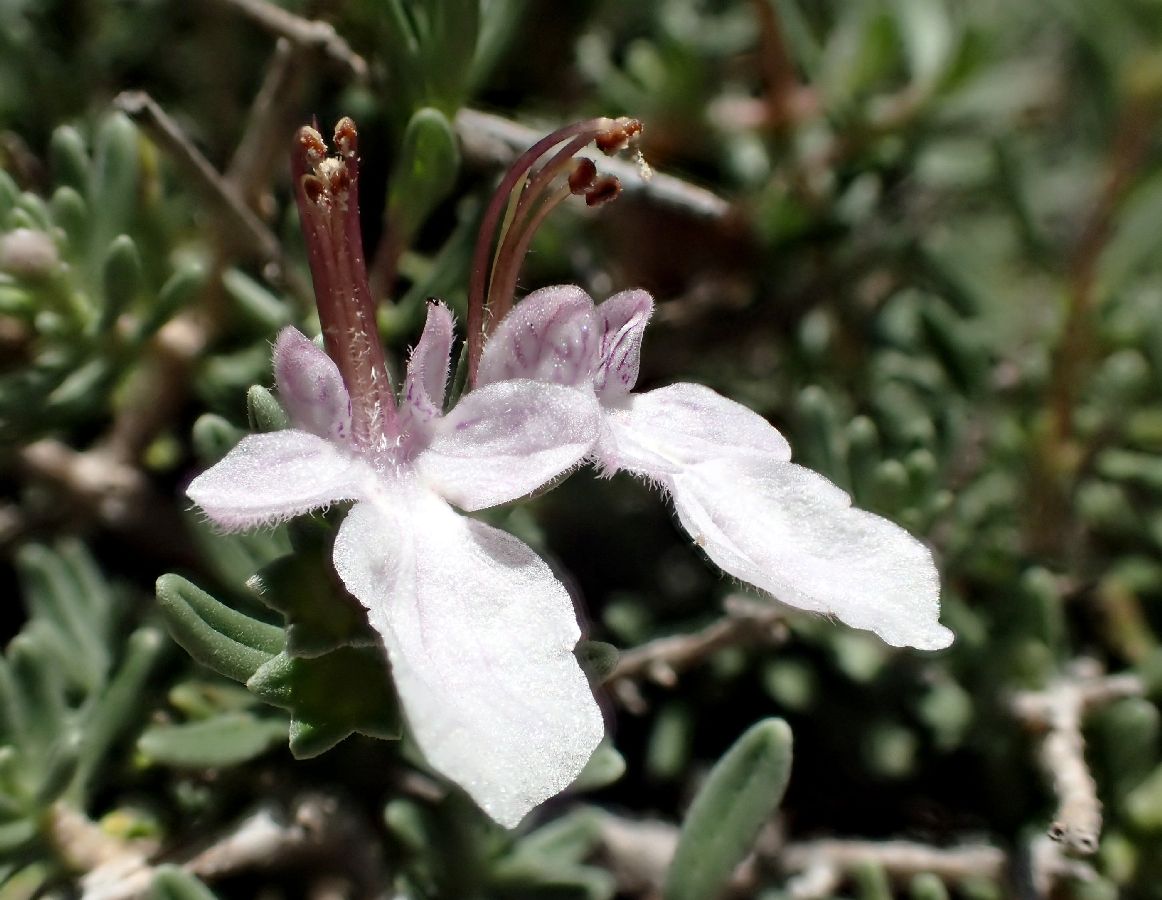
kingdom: Plantae
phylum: Tracheophyta
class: Magnoliopsida
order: Lamiales
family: Lamiaceae
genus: Teucrium
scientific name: Teucrium brevifolium
